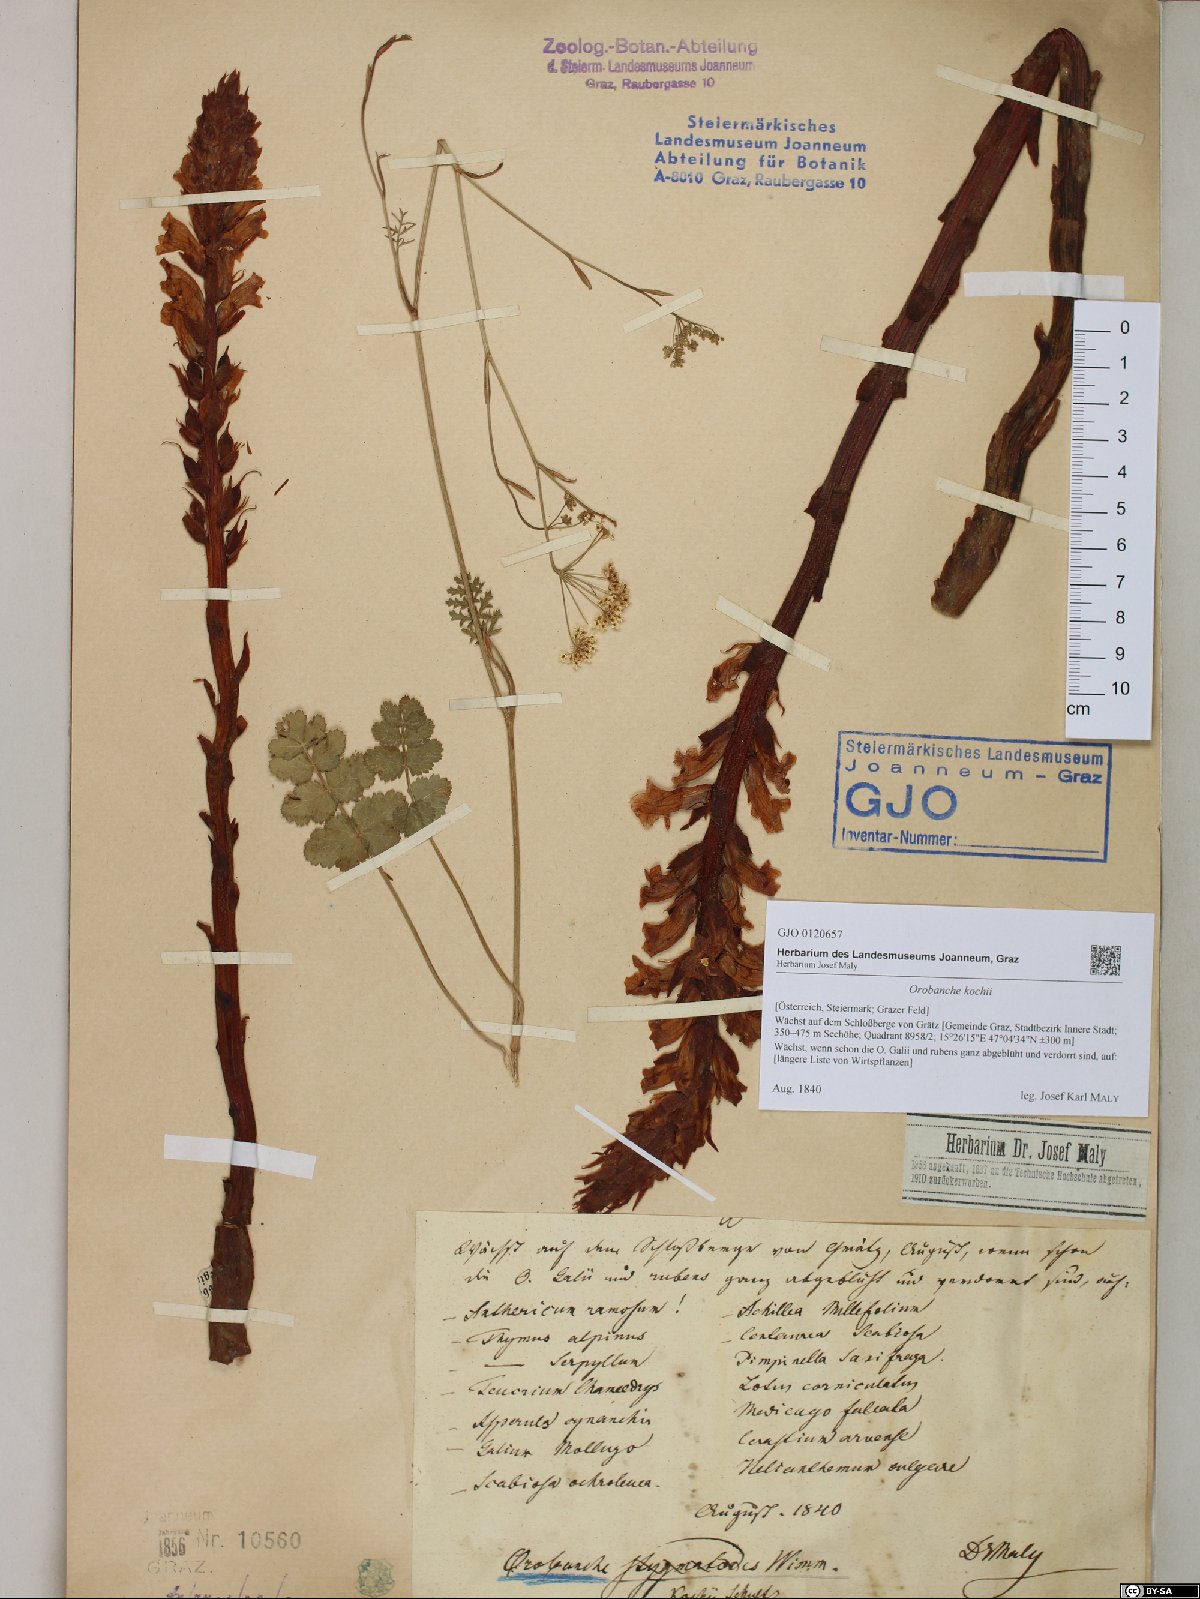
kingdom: Plantae
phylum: Tracheophyta
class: Magnoliopsida
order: Lamiales
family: Orobanchaceae
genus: Orobanche
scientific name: Orobanche centaurina
